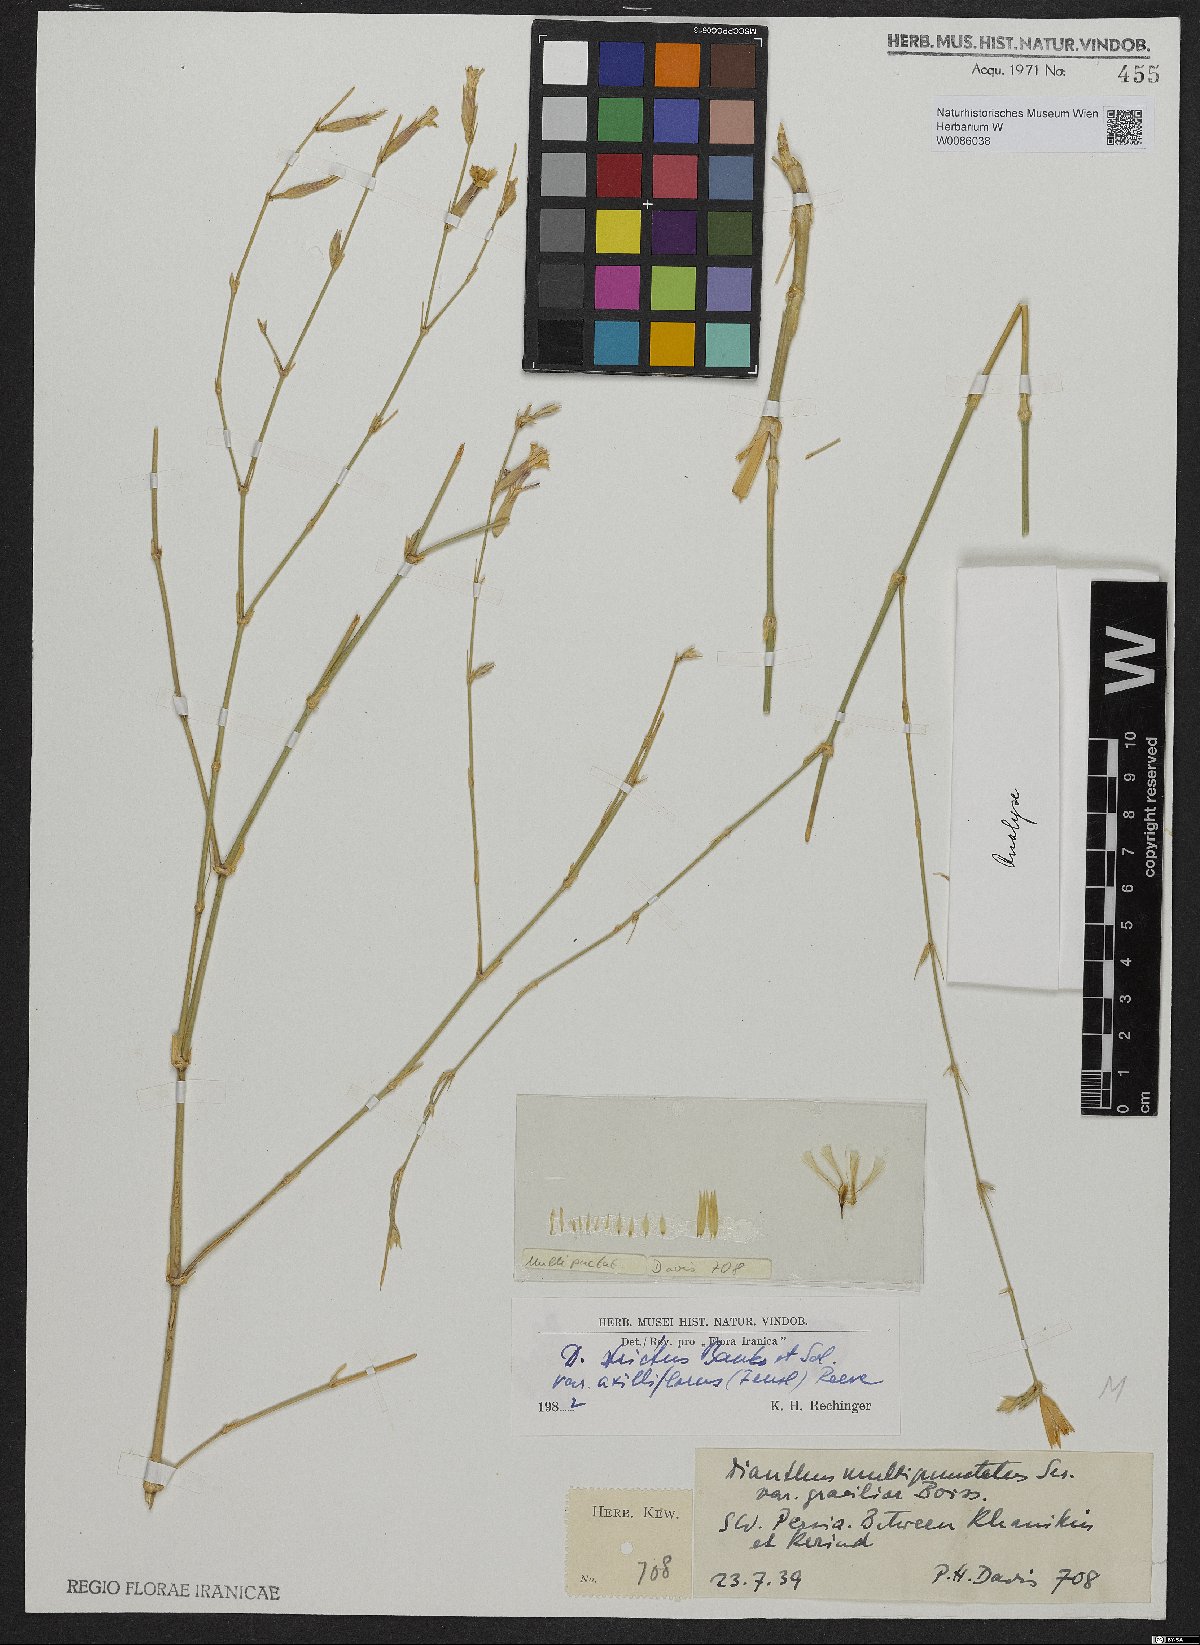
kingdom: Plantae
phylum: Tracheophyta
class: Magnoliopsida
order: Caryophyllales
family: Caryophyllaceae
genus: Dianthus
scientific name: Dianthus strictus
